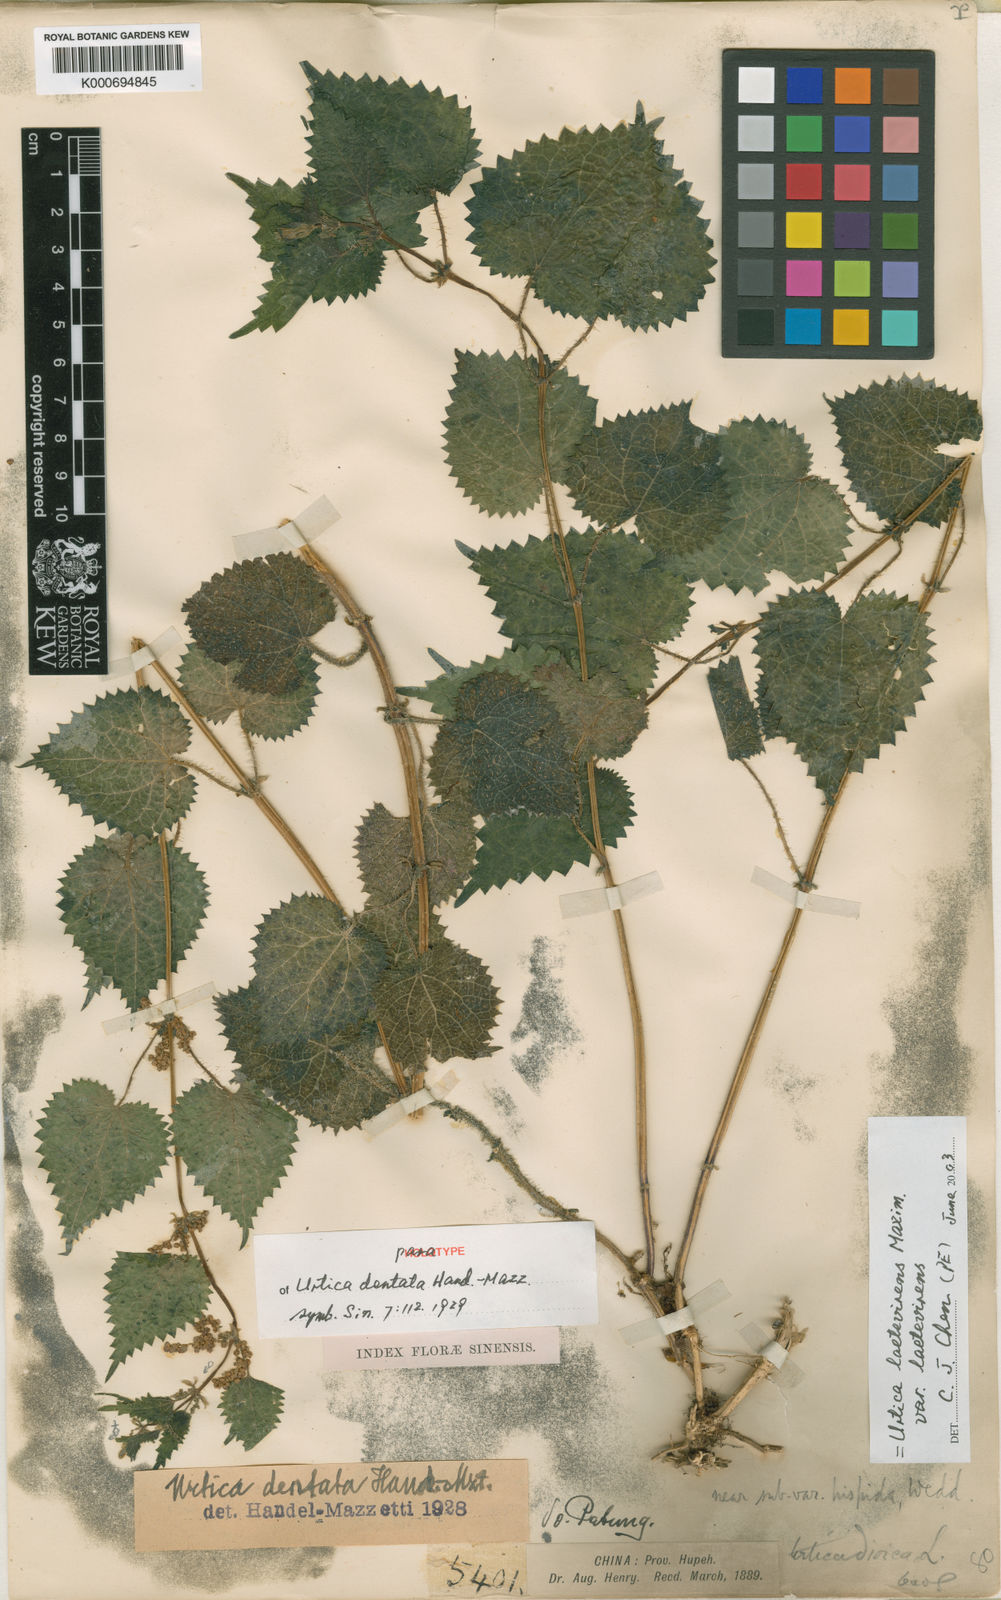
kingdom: Plantae
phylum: Tracheophyta
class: Magnoliopsida
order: Rosales
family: Urticaceae
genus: Urtica
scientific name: Urtica thunbergiana
